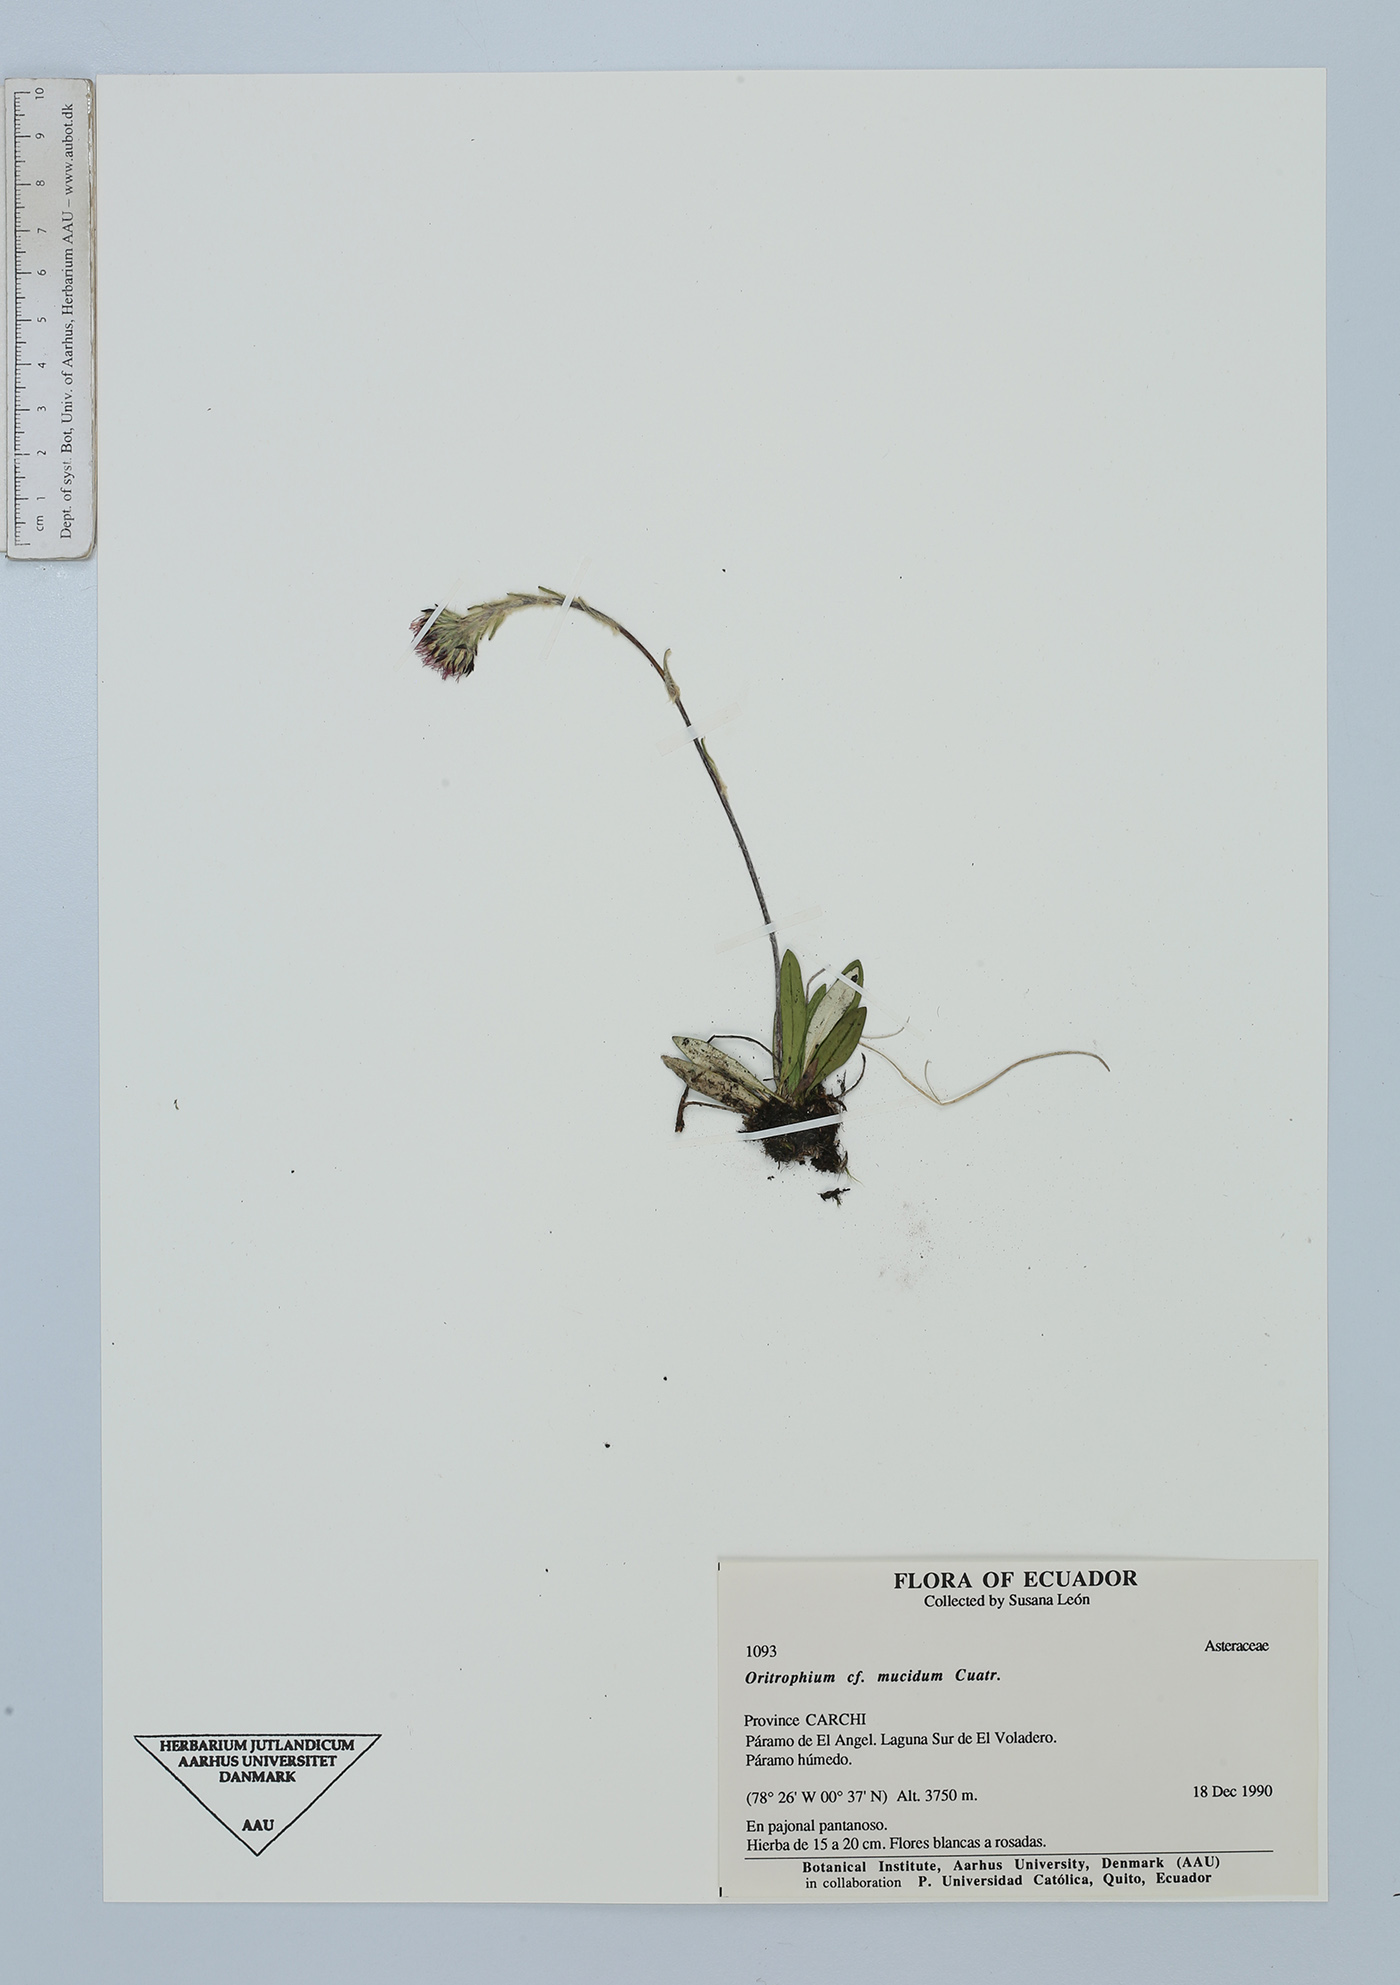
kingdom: Plantae
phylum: Tracheophyta
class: Magnoliopsida
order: Asterales
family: Asteraceae
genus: Oritrophium
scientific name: Oritrophium mucidum
